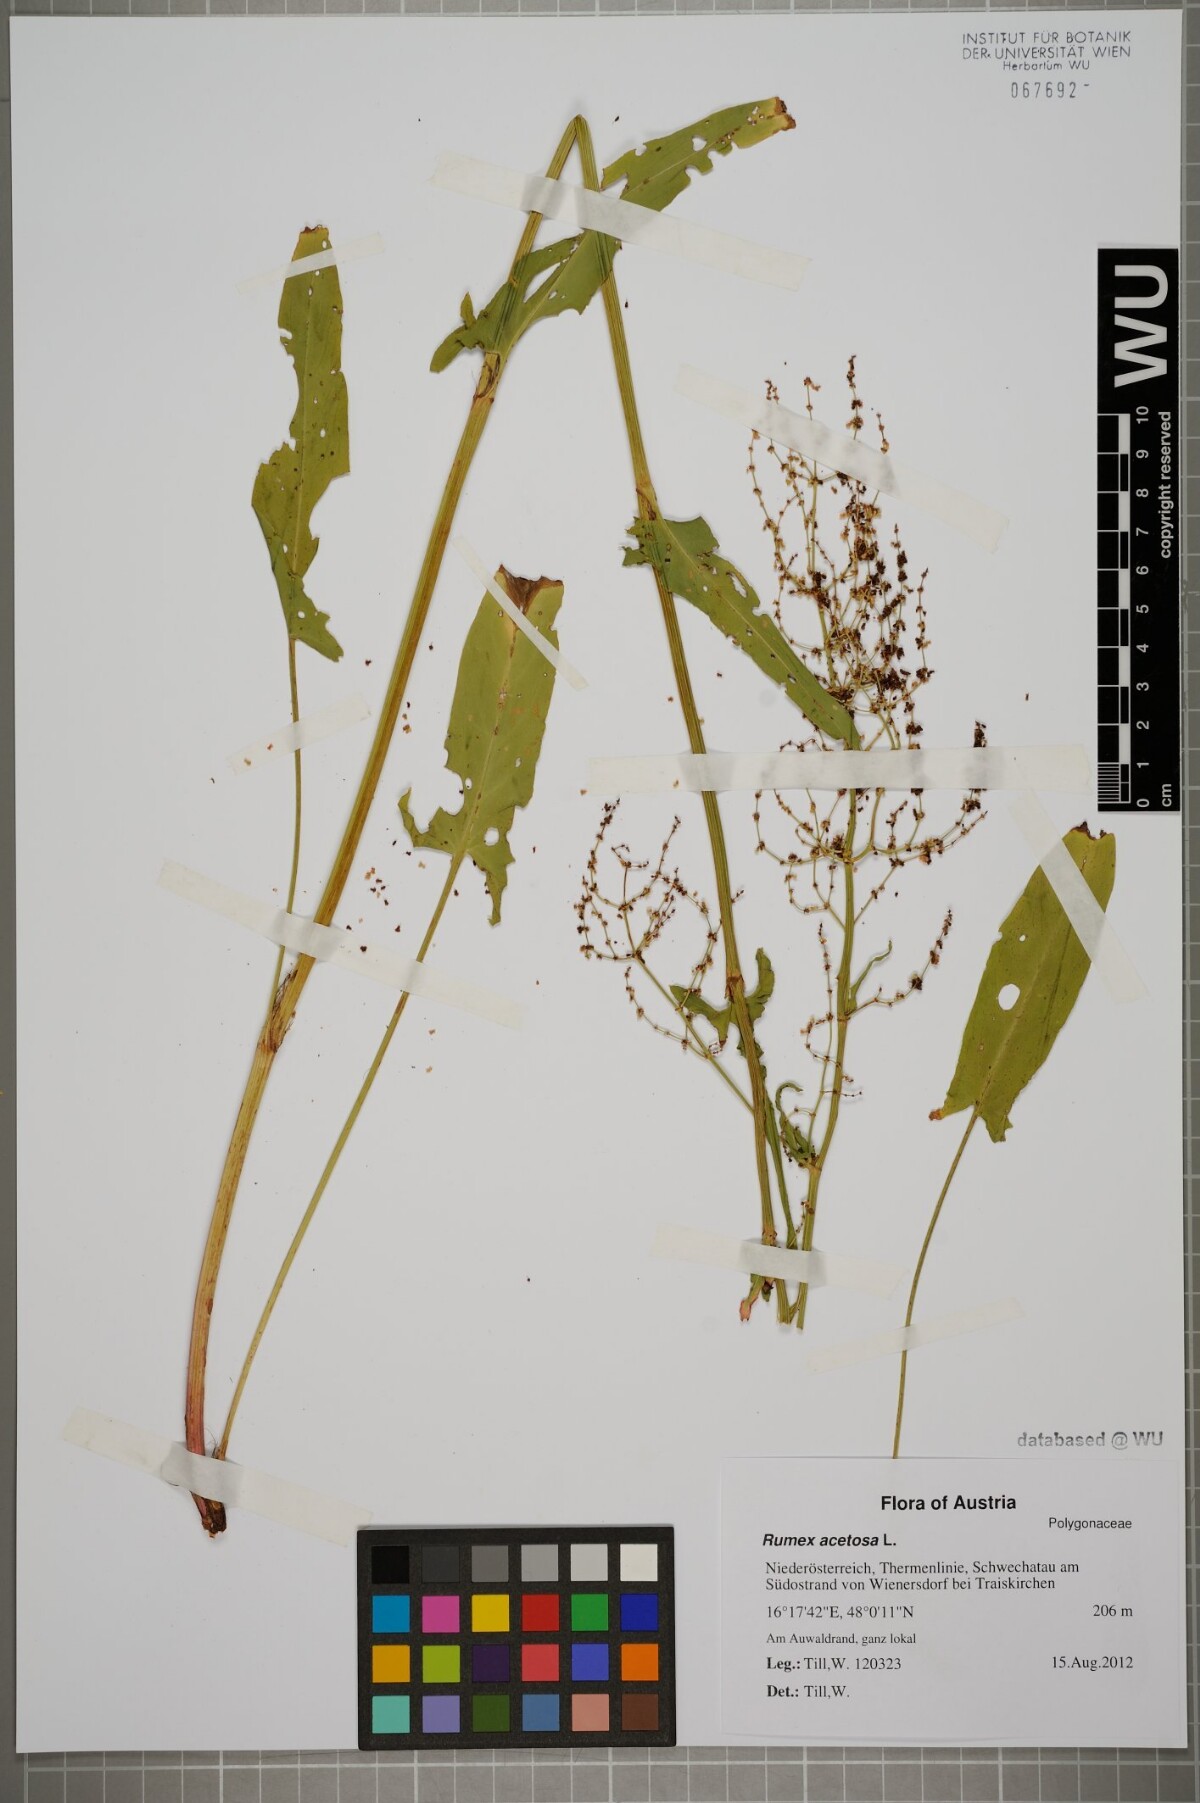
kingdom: Plantae
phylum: Tracheophyta
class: Magnoliopsida
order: Caryophyllales
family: Polygonaceae
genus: Rumex
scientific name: Rumex acetosa
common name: Garden sorrel
